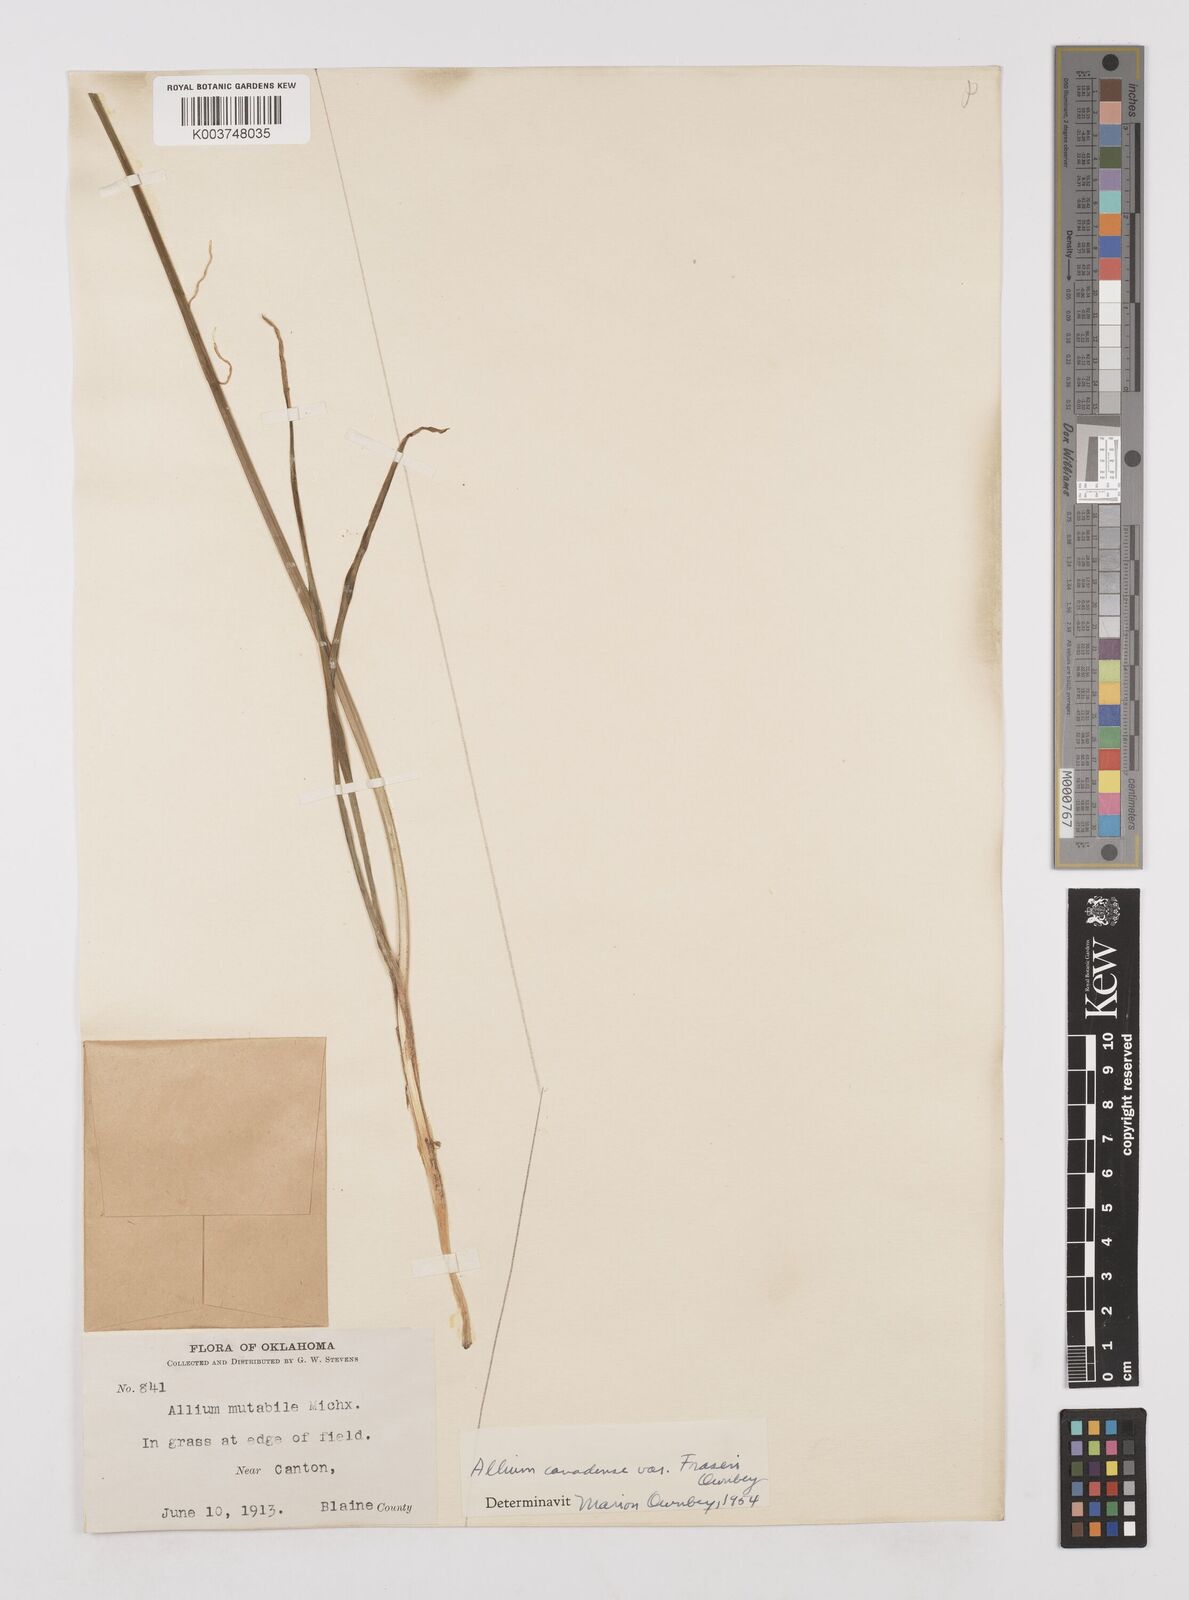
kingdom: Plantae
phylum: Tracheophyta
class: Liliopsida
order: Asparagales
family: Amaryllidaceae
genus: Allium
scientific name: Allium fraseri
